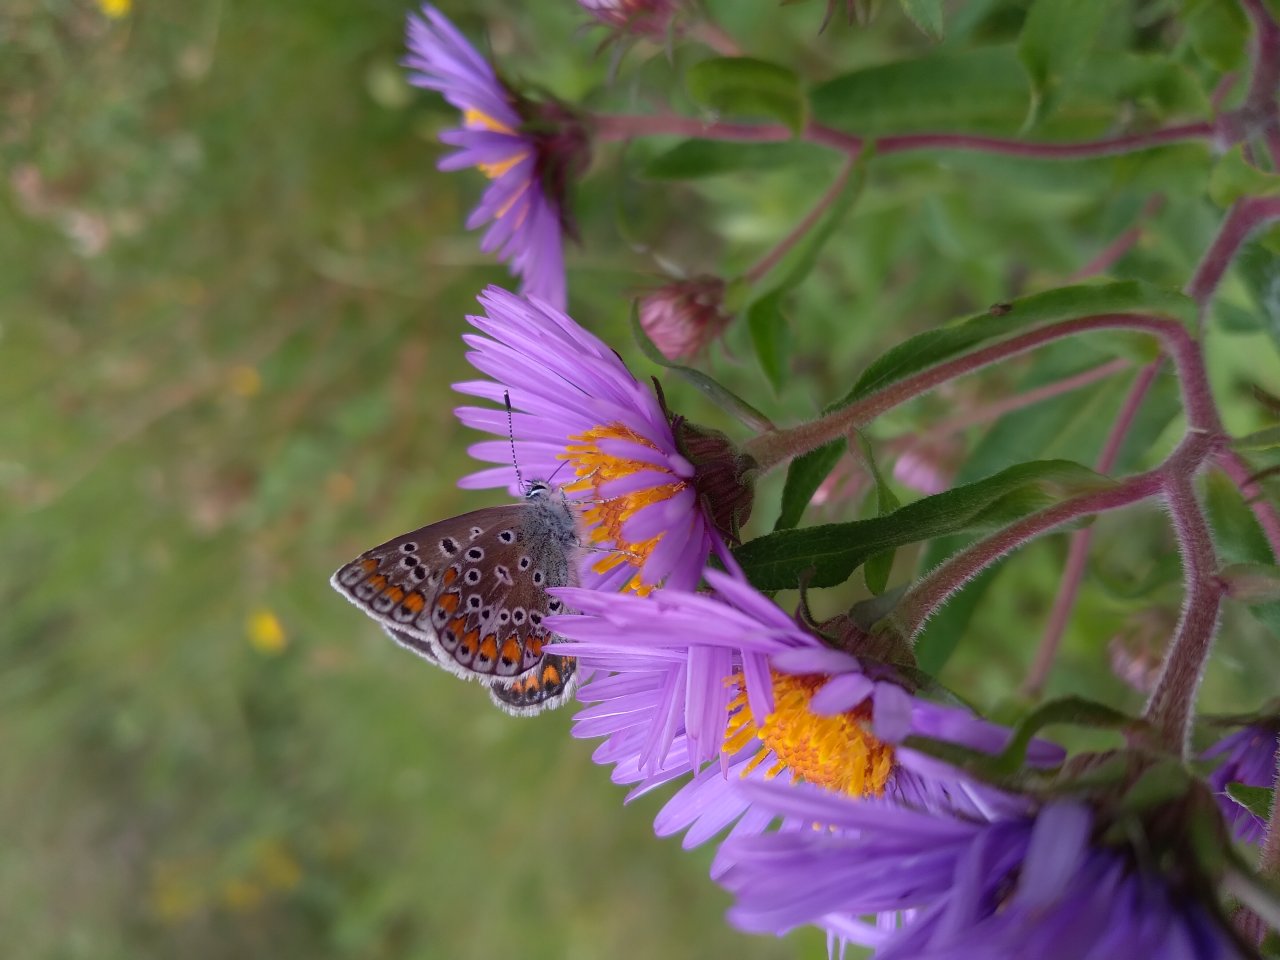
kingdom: Animalia
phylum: Arthropoda
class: Insecta
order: Lepidoptera
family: Lycaenidae
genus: Polyommatus
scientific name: Polyommatus icarus
